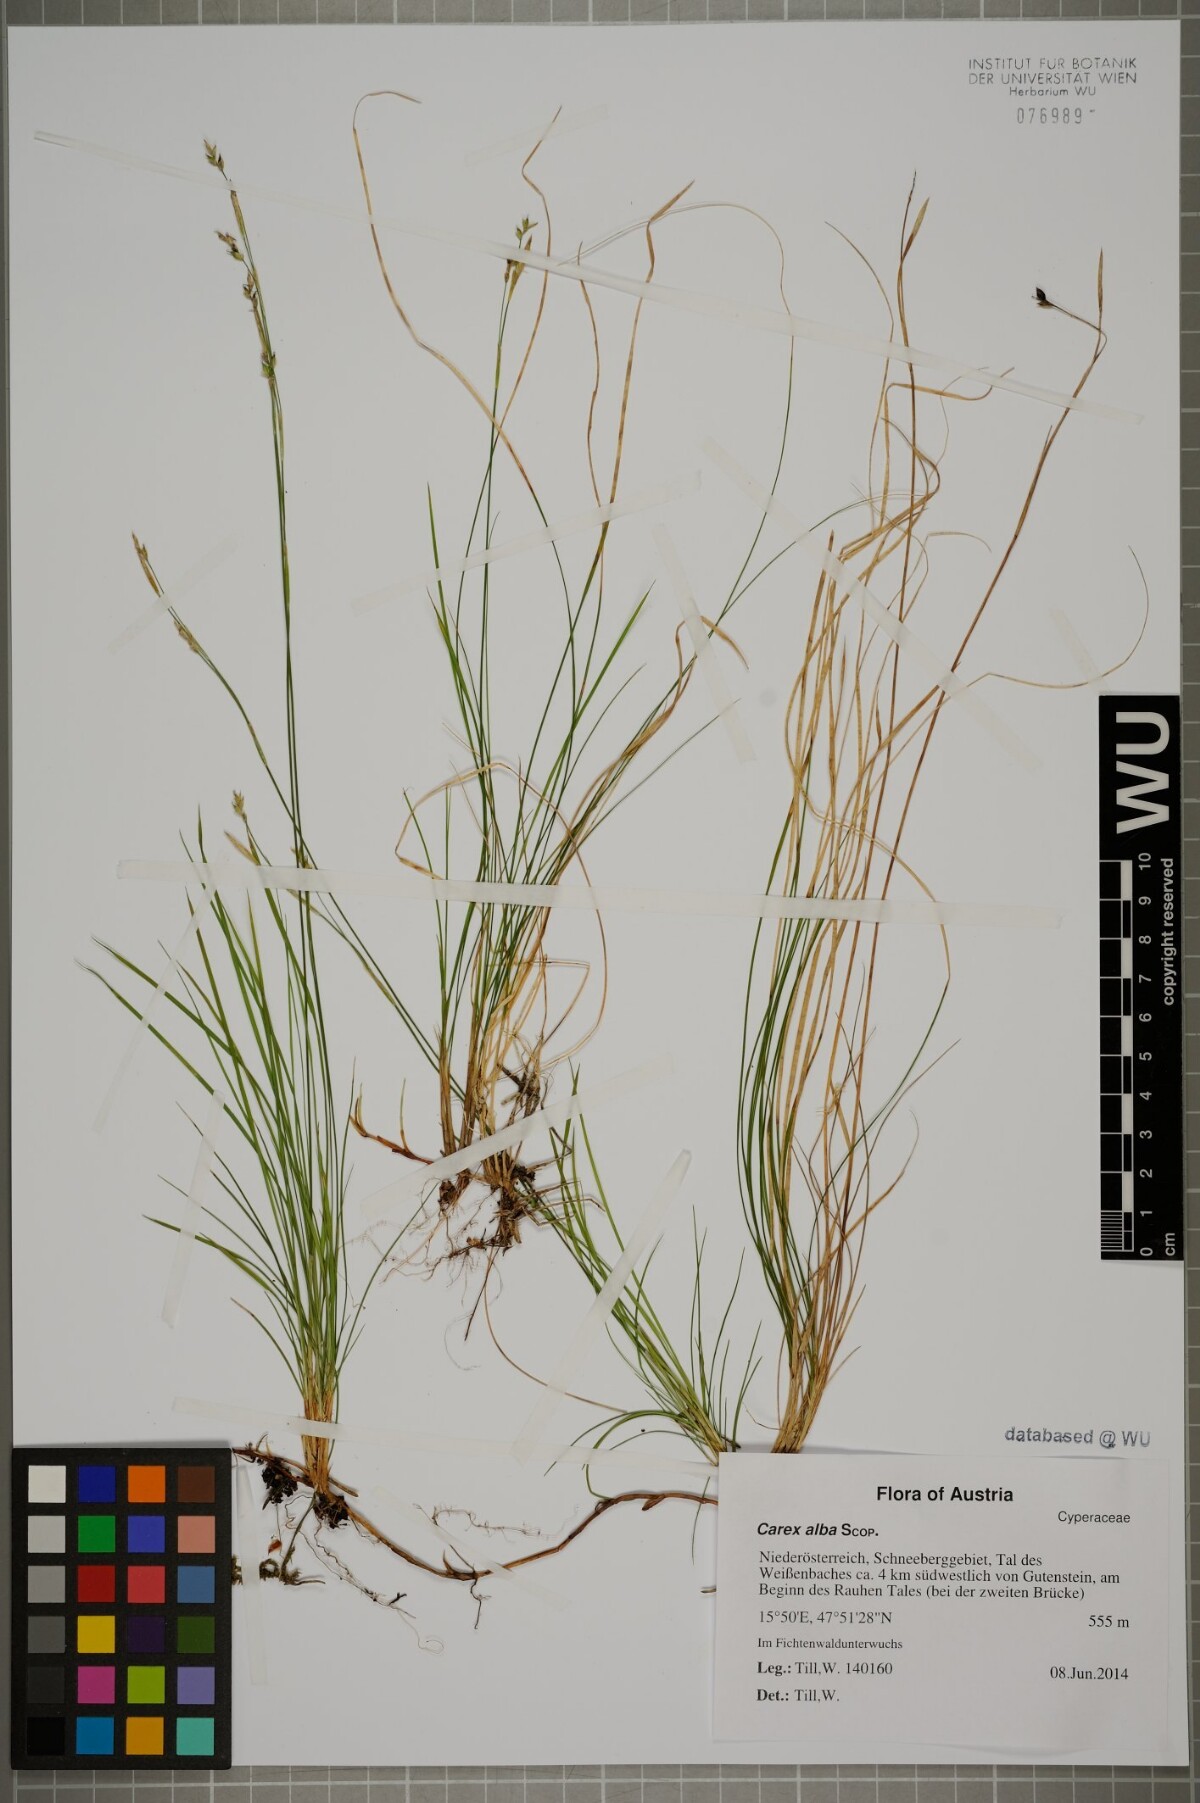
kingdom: Plantae
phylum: Tracheophyta
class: Liliopsida
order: Poales
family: Cyperaceae
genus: Carex
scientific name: Carex alba
